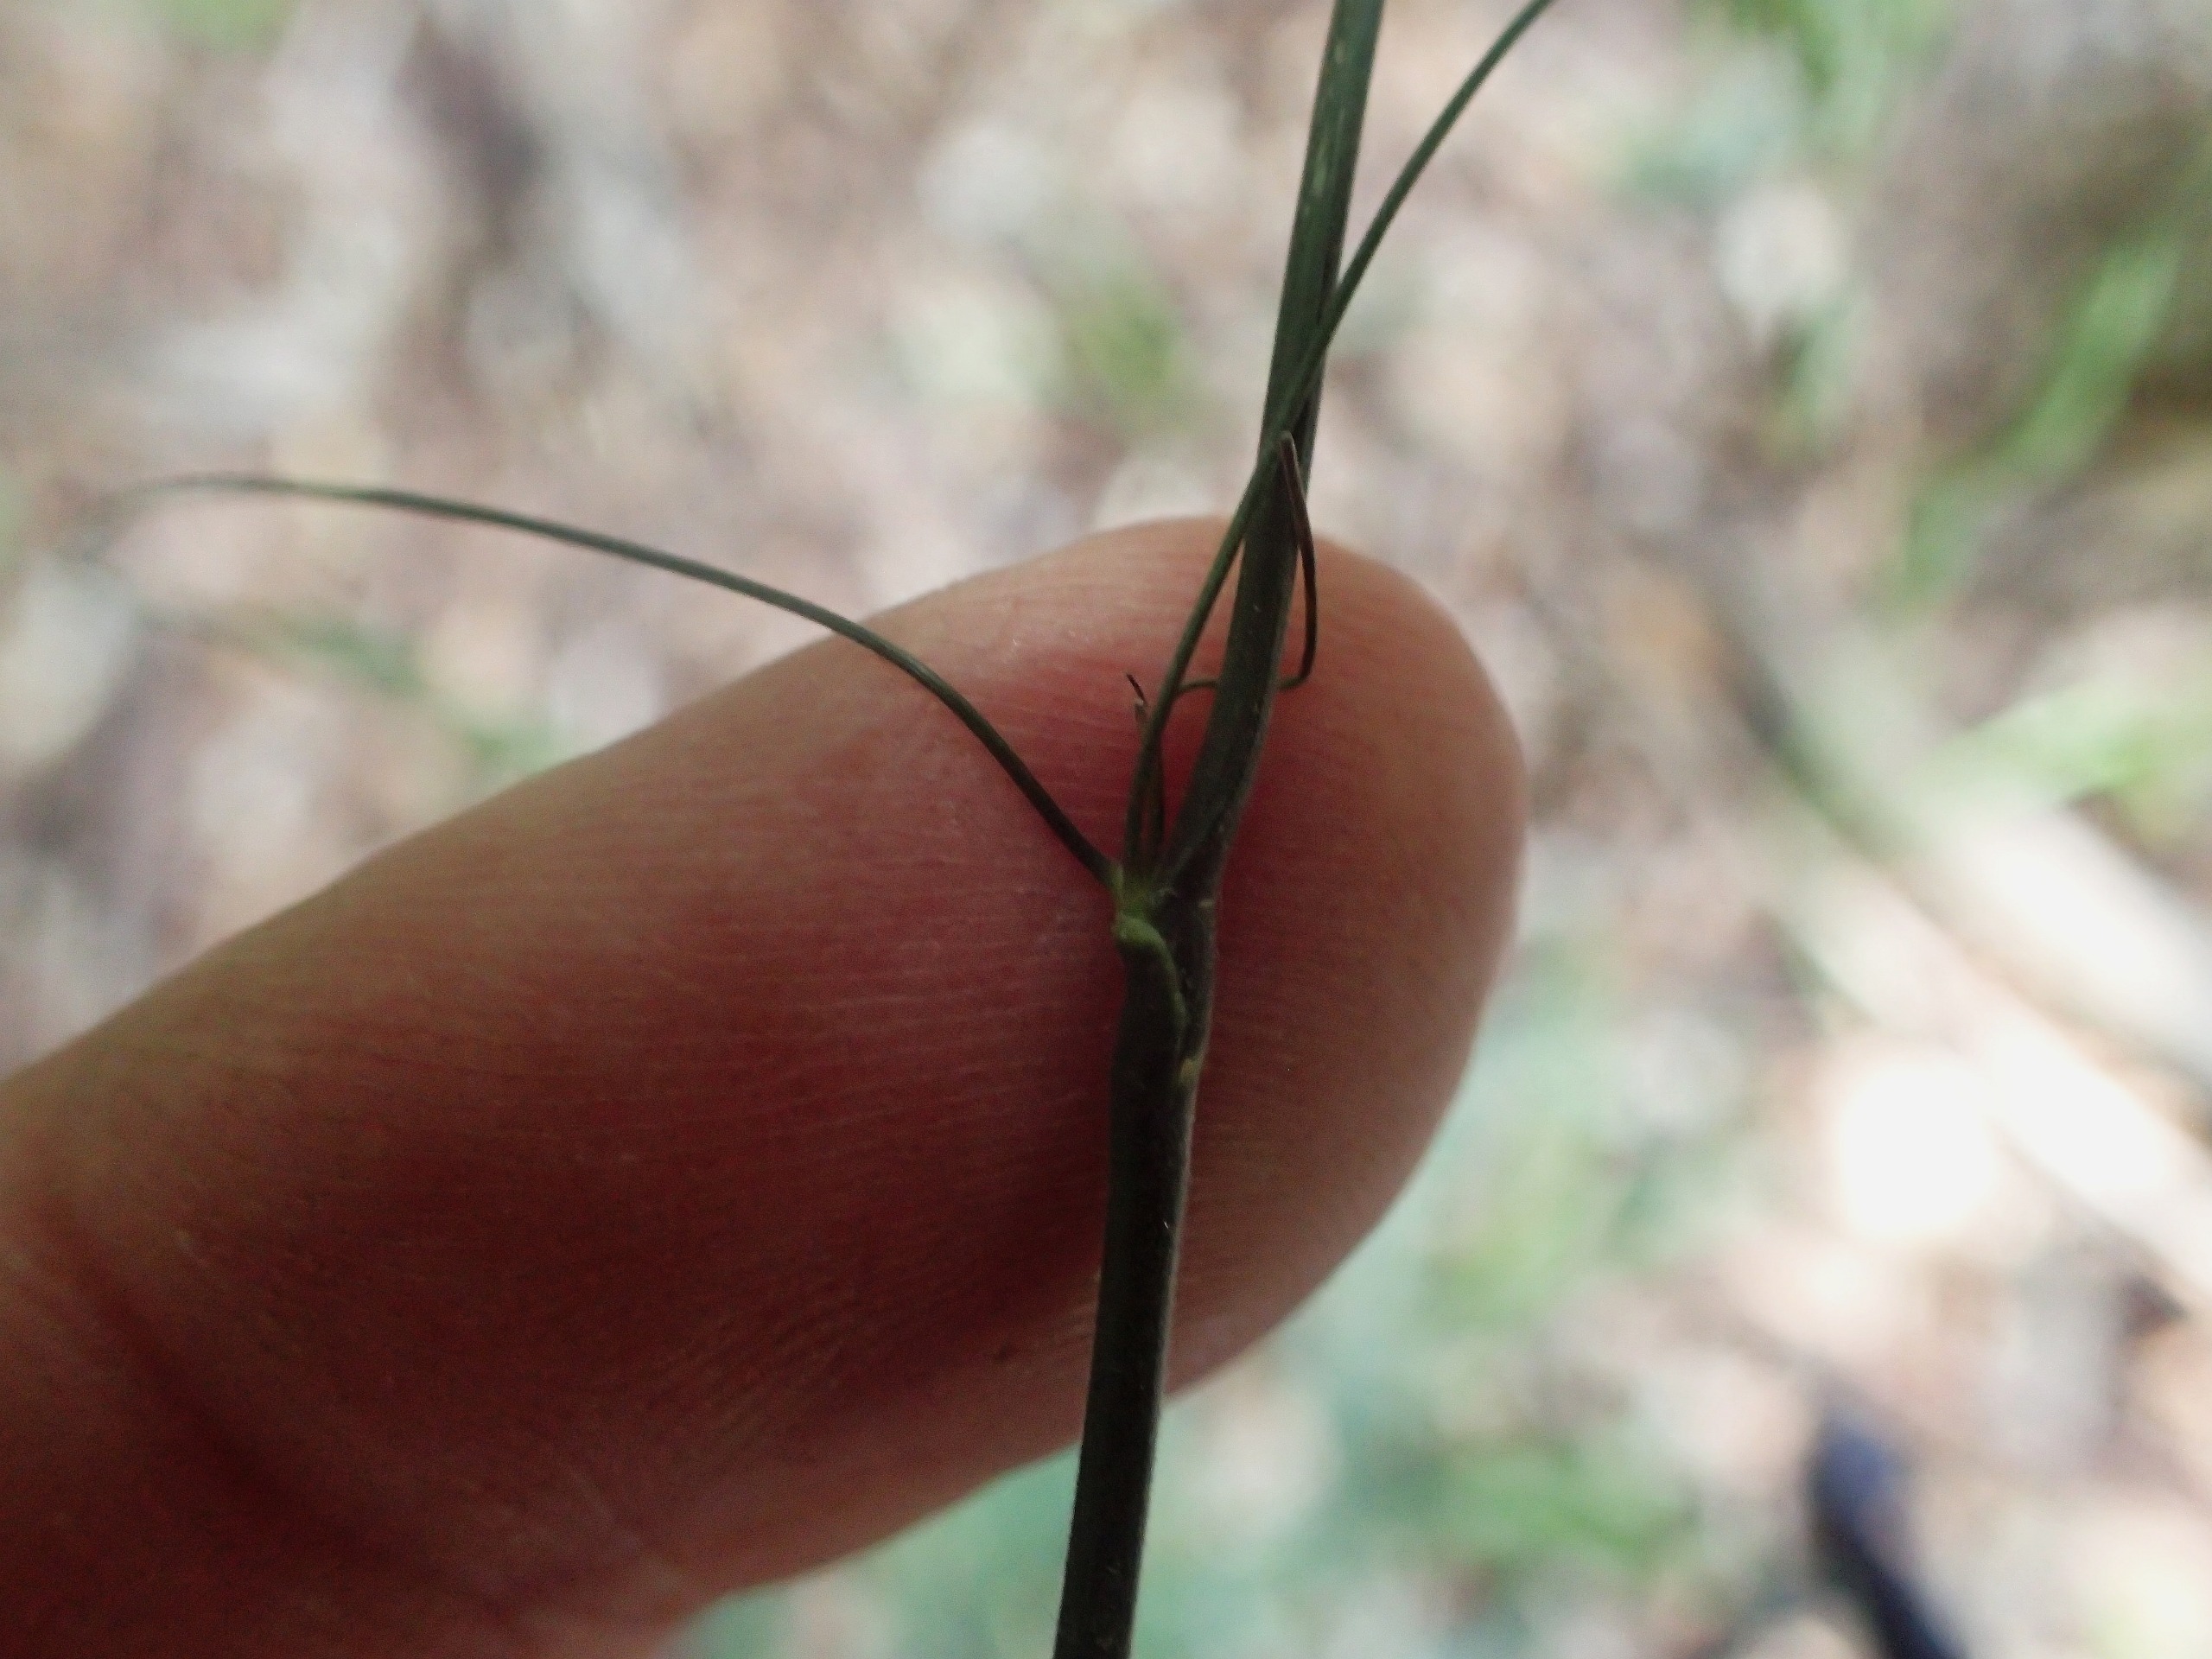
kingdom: Plantae
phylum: Tracheophyta
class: Liliopsida
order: Poales
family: Poaceae
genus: Bromus
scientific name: Bromus ramosus
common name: Sildig skov-hejre
